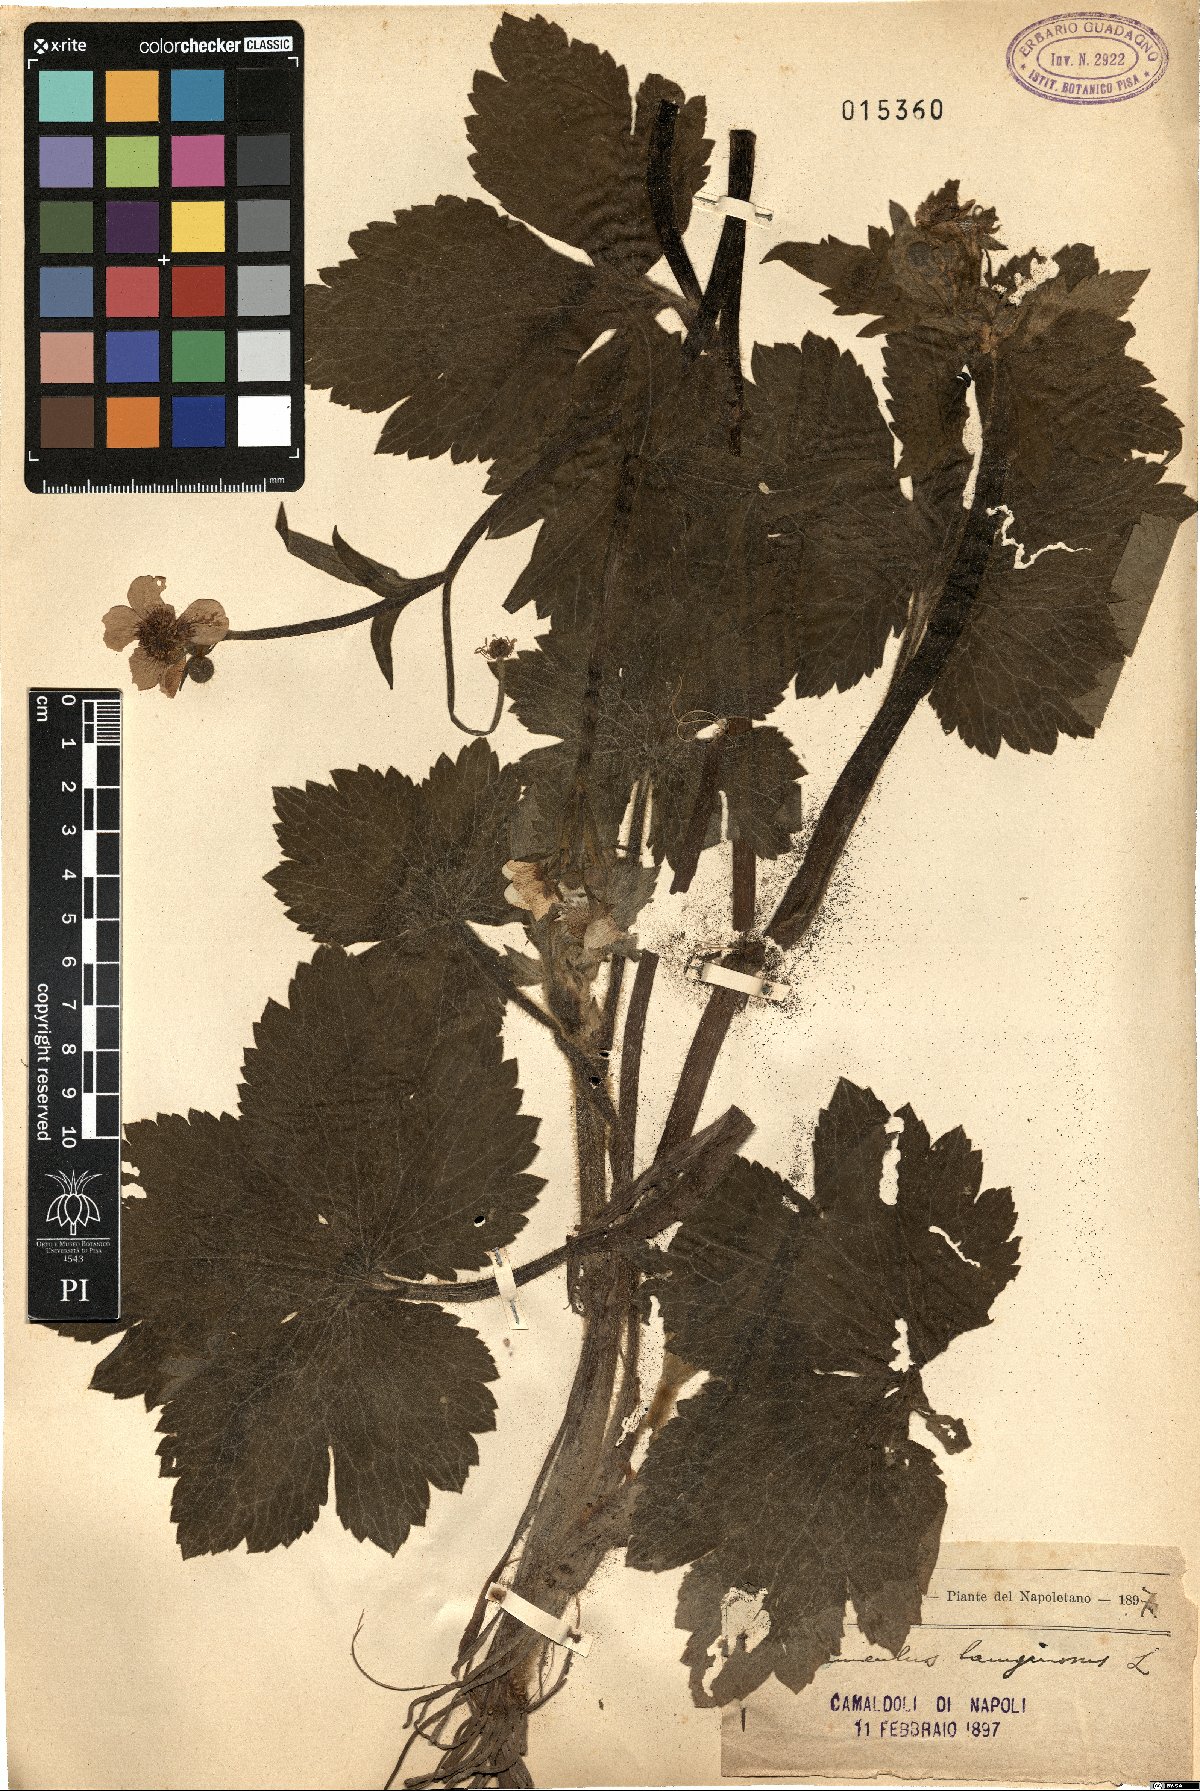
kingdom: Plantae
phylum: Tracheophyta
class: Magnoliopsida
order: Ranunculales
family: Ranunculaceae
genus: Ranunculus
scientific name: Ranunculus lanuginosus
